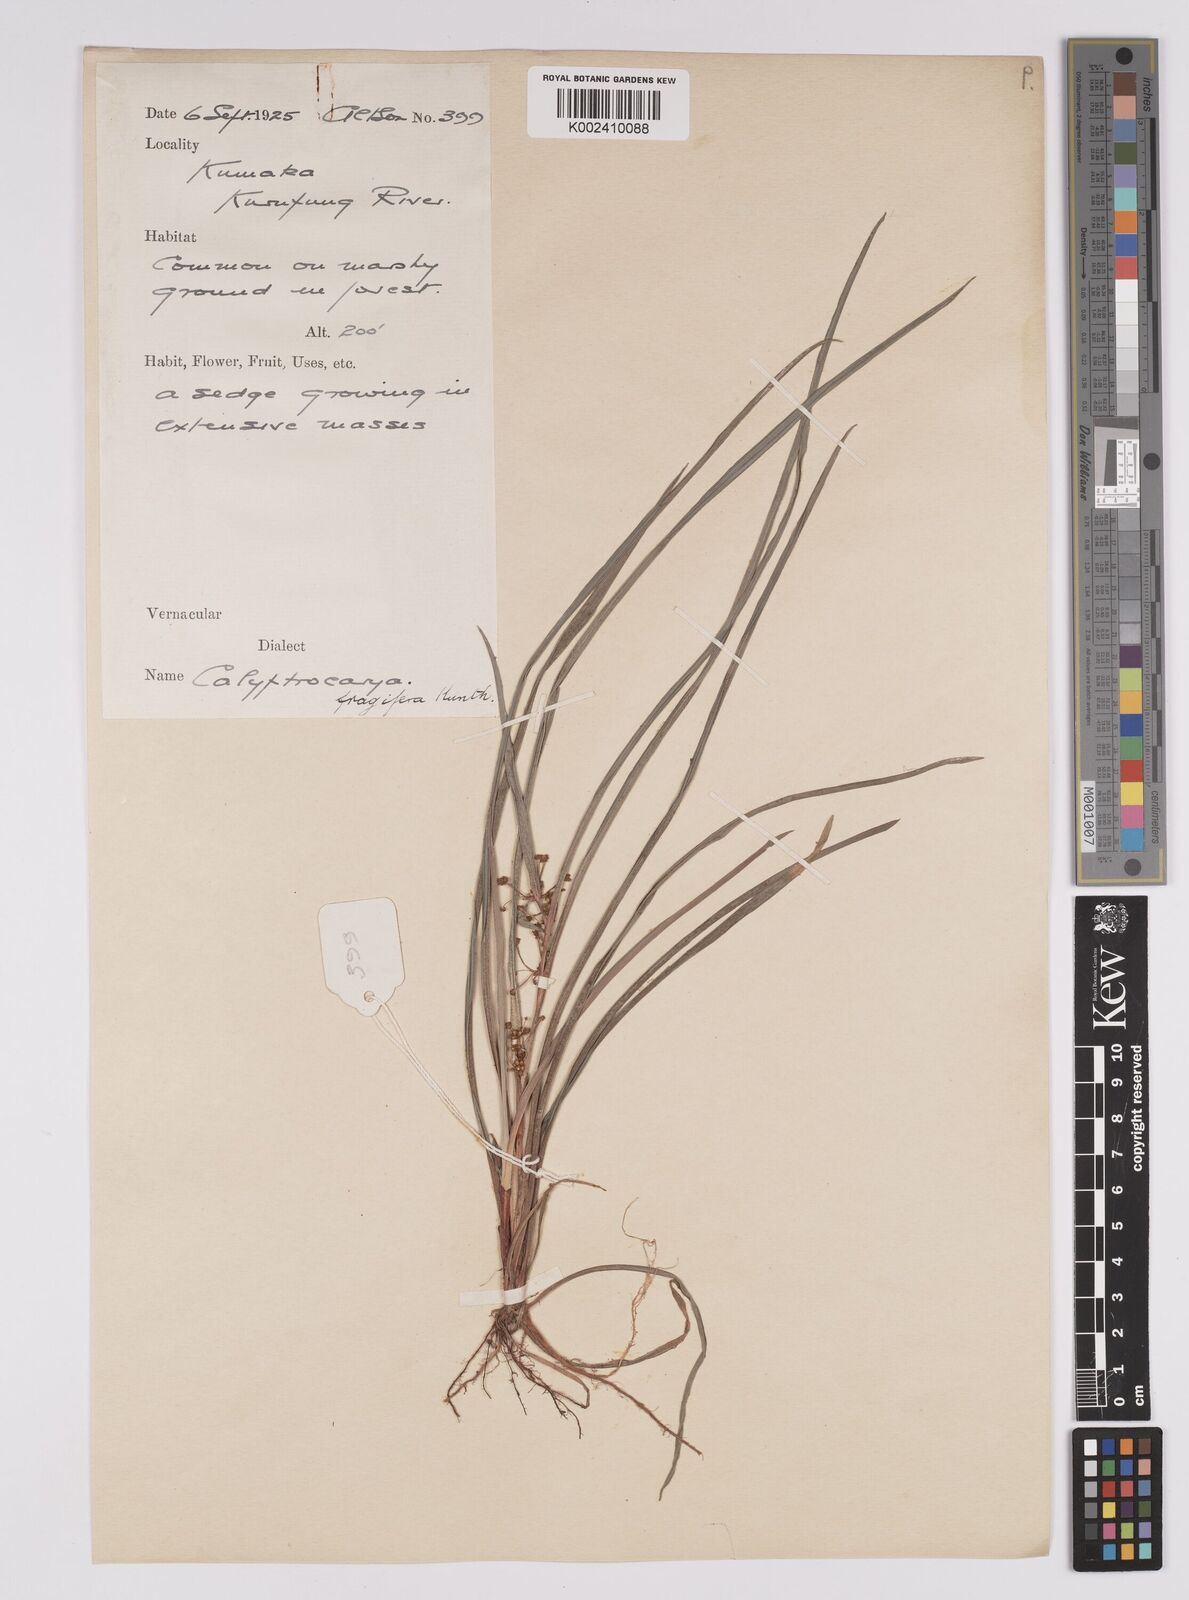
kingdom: Plantae
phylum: Tracheophyta
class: Liliopsida
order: Poales
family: Cyperaceae
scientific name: Cyperaceae
